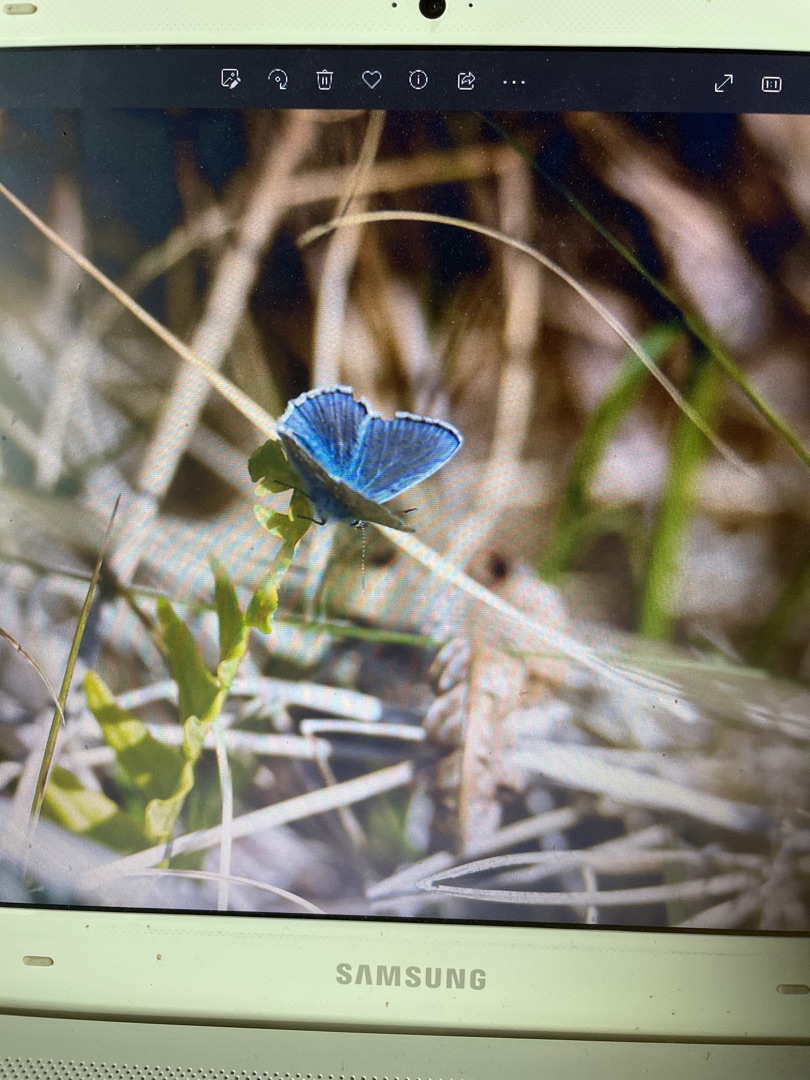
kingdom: Animalia
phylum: Arthropoda
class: Insecta
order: Lepidoptera
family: Lycaenidae
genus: Polyommatus
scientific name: Polyommatus icarus
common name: Almindelig blåfugl
